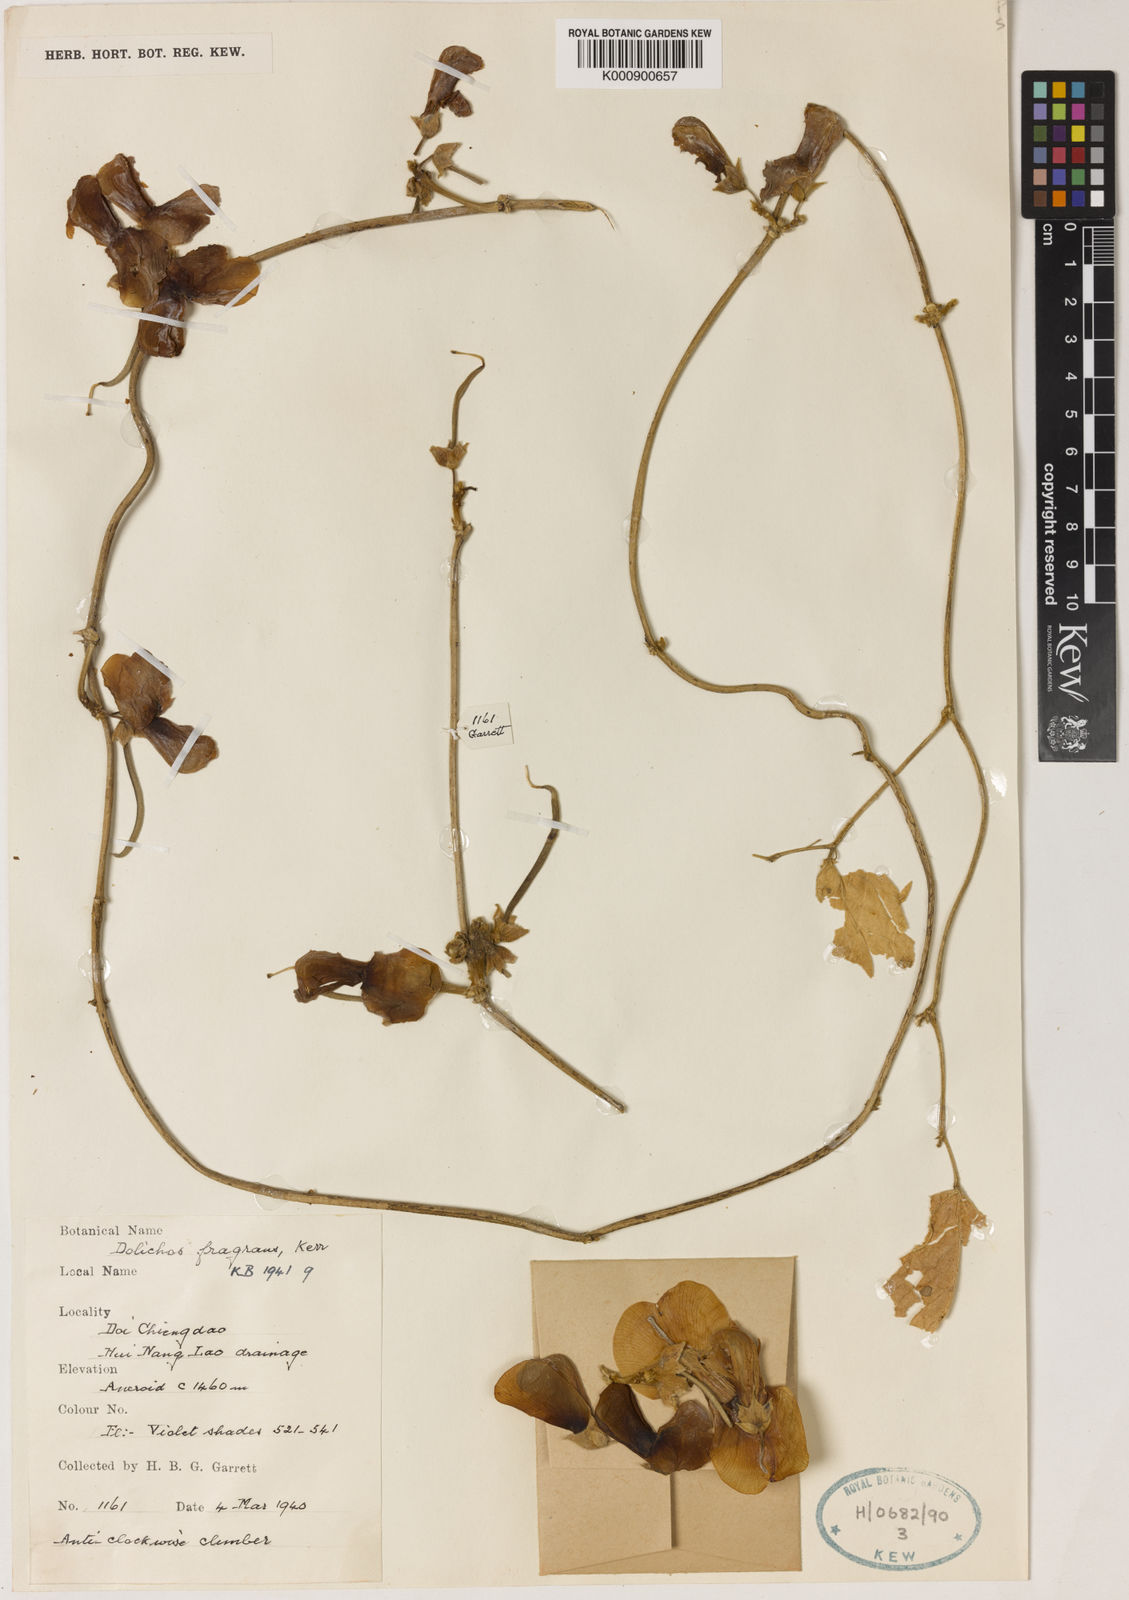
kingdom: Plantae
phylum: Tracheophyta
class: Magnoliopsida
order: Fabales
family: Fabaceae
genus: Dolichos
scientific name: Dolichos fragrans
